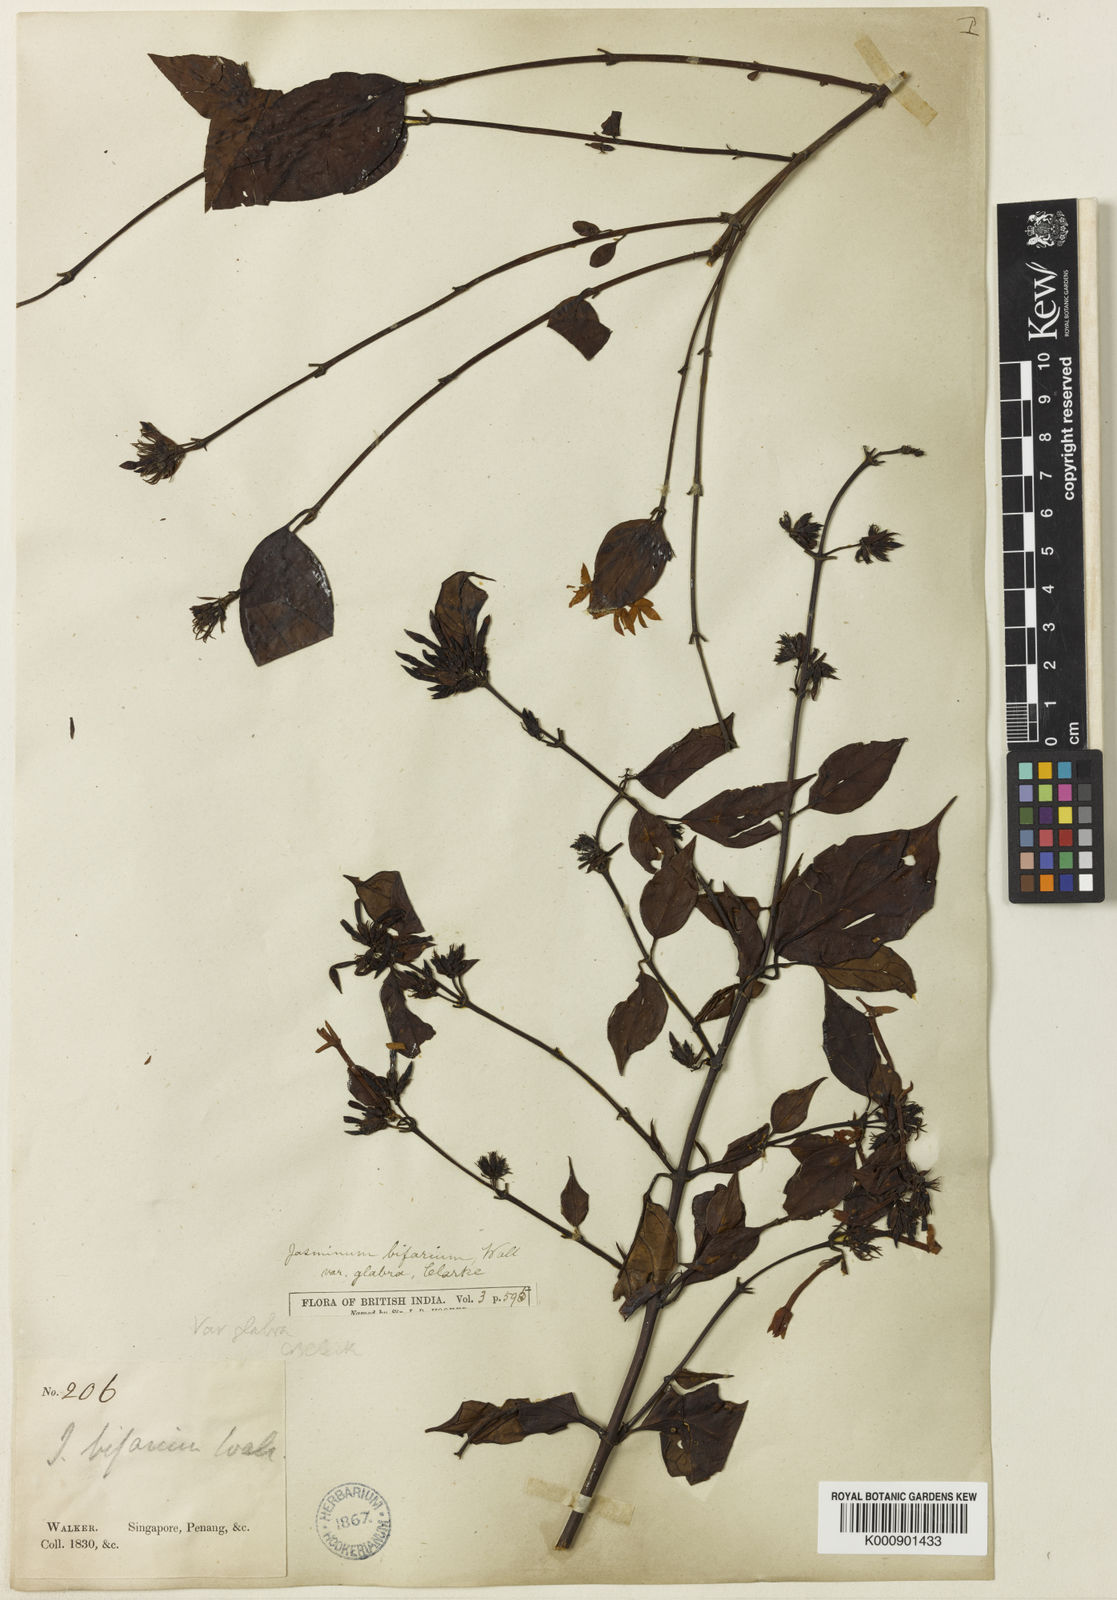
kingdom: Plantae
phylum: Tracheophyta
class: Magnoliopsida
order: Lamiales
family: Oleaceae
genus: Jasminum
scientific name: Jasminum elongatum
